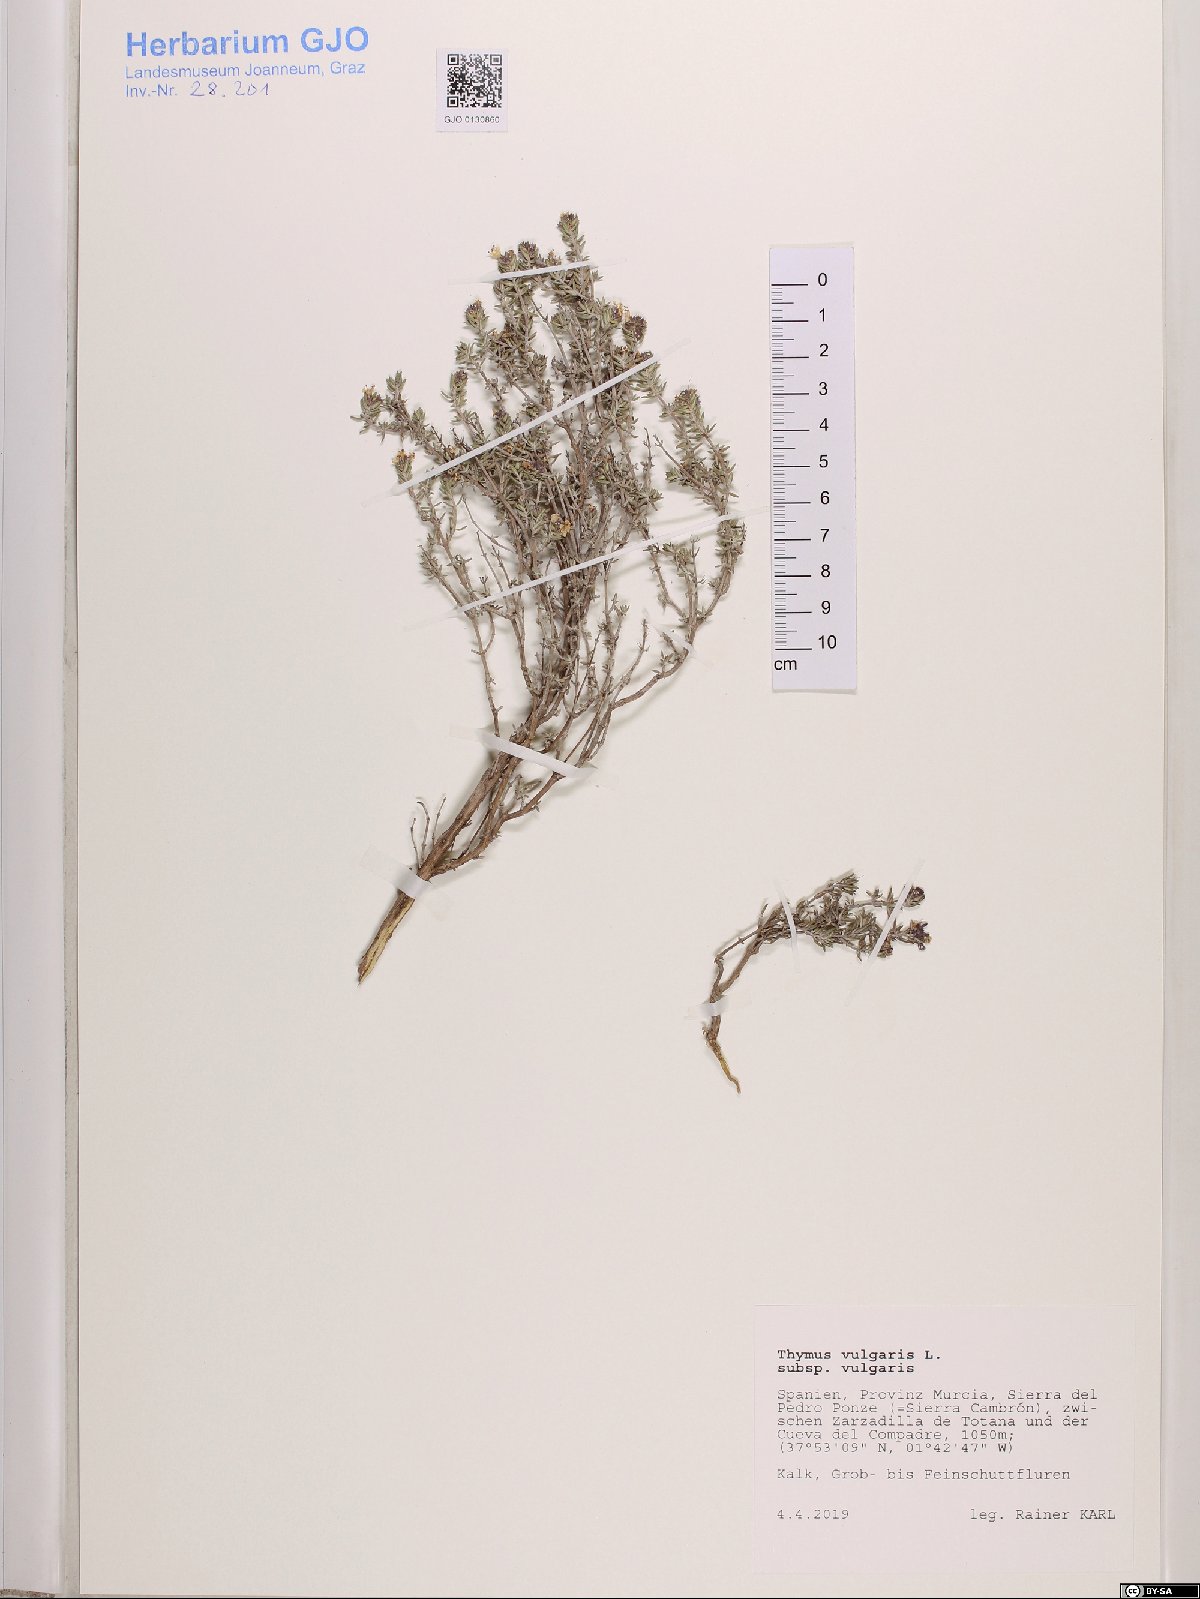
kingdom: Plantae
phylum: Tracheophyta
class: Magnoliopsida
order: Lamiales
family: Lamiaceae
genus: Thymus
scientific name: Thymus vulgaris
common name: Garden thyme
